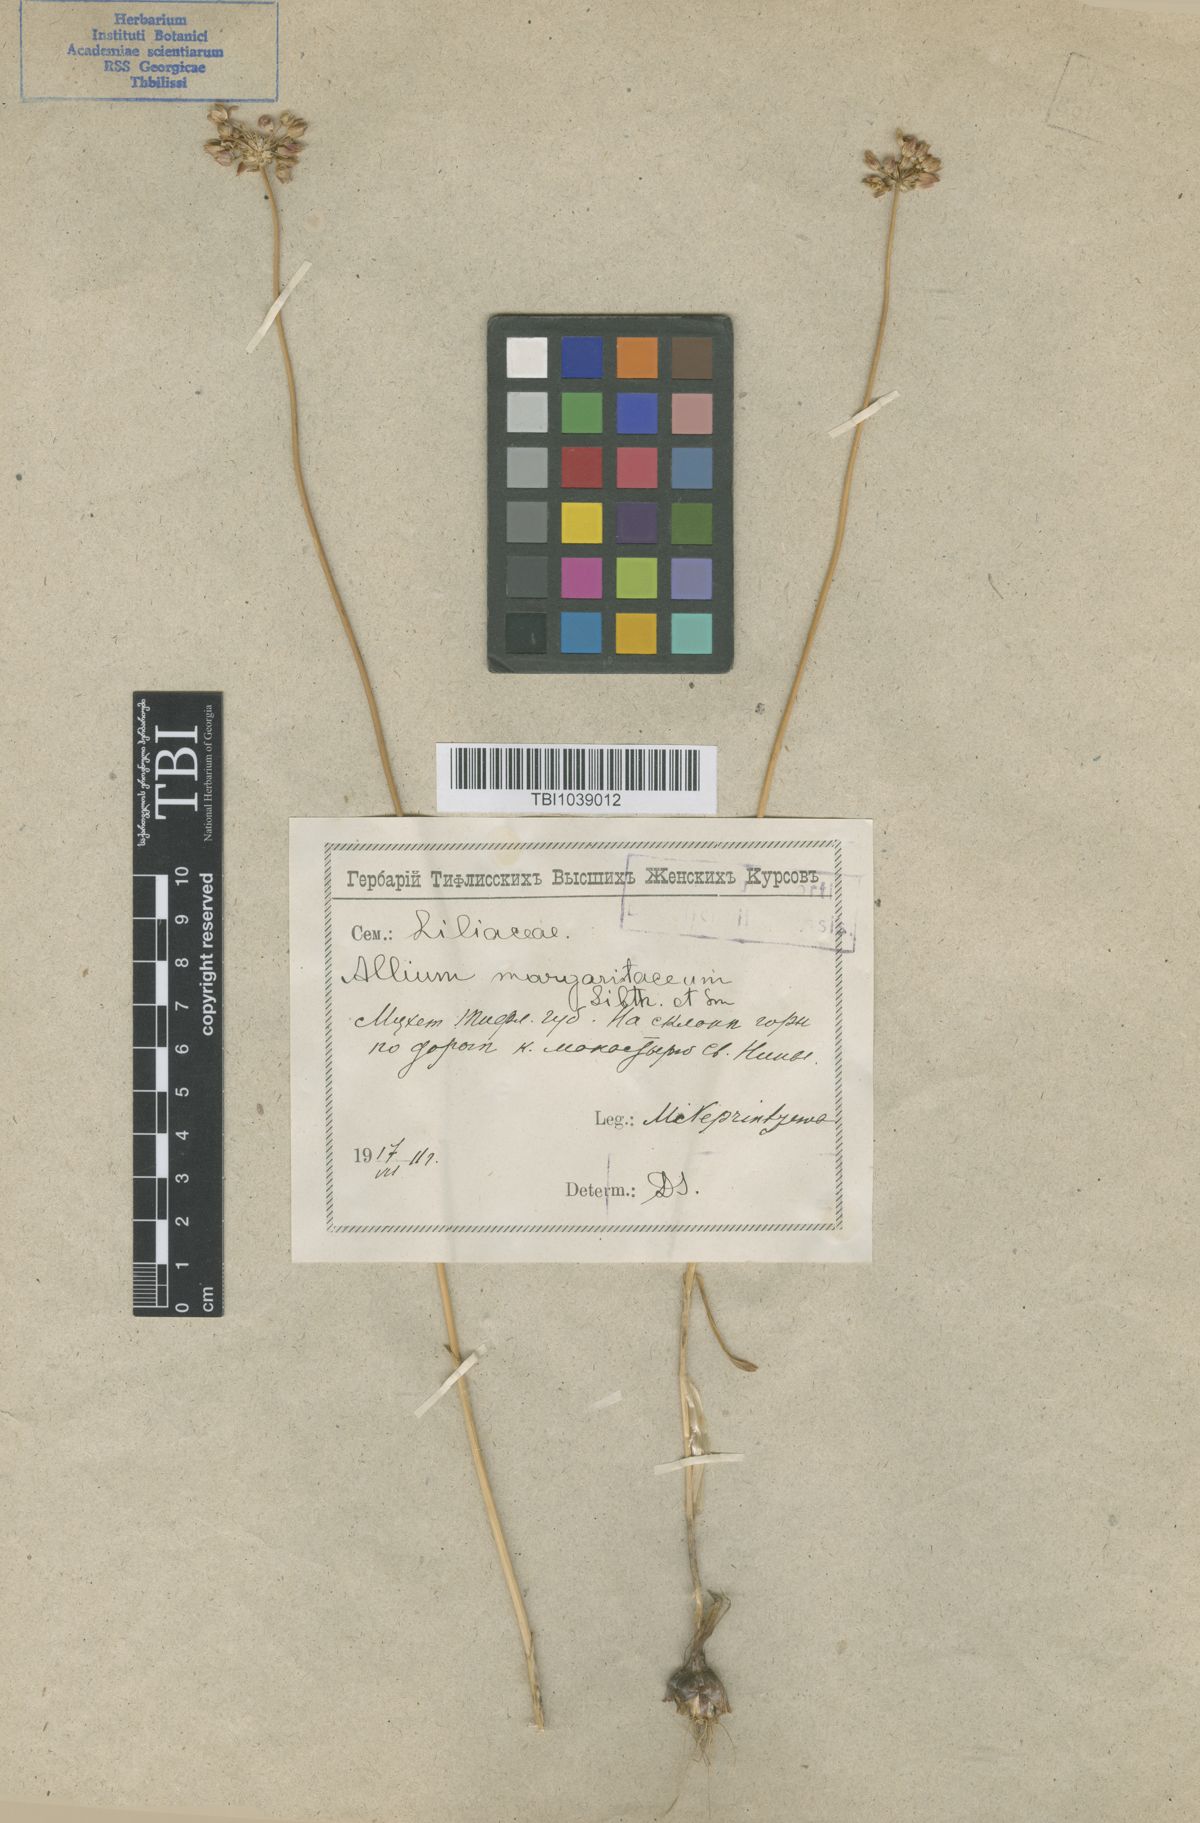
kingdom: Plantae
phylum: Tracheophyta
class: Liliopsida
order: Asparagales
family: Amaryllidaceae
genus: Allium
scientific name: Allium rotundum
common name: Sand leek
